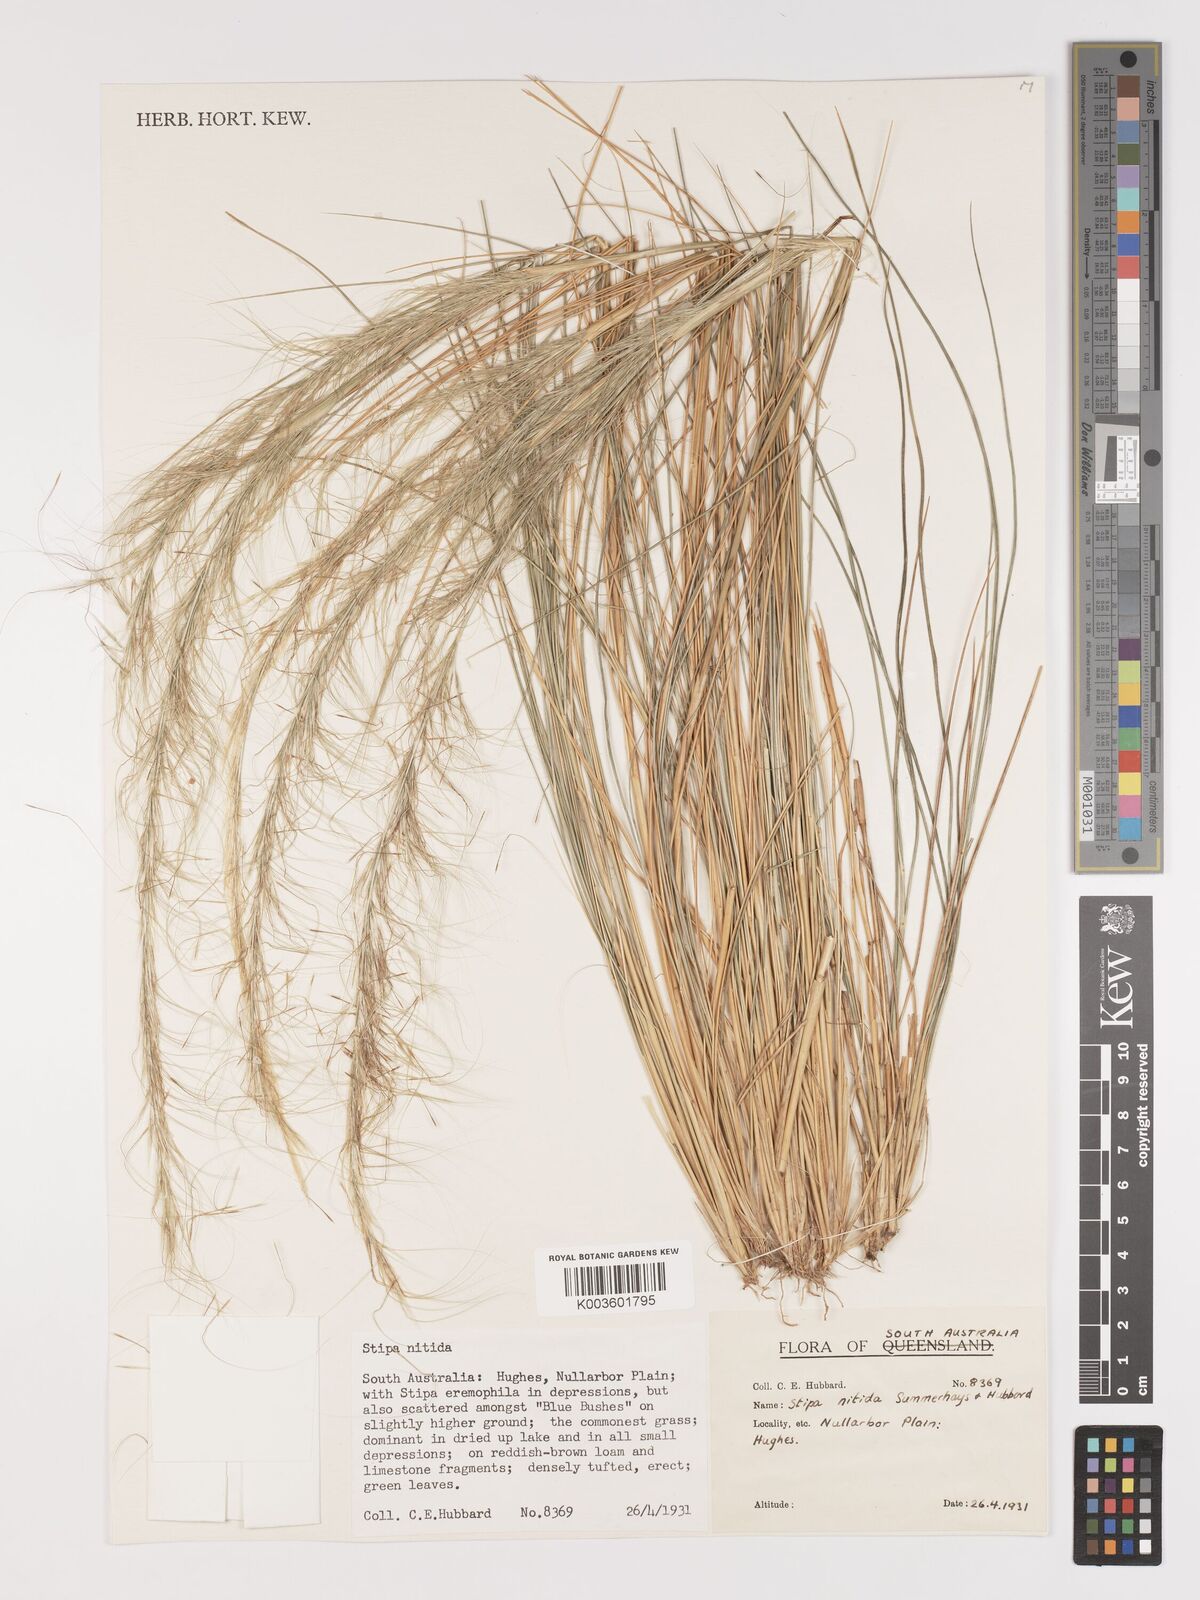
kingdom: Plantae
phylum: Tracheophyta
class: Liliopsida
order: Poales
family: Poaceae
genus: Austrostipa
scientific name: Austrostipa nitida
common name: Balcarra grass
